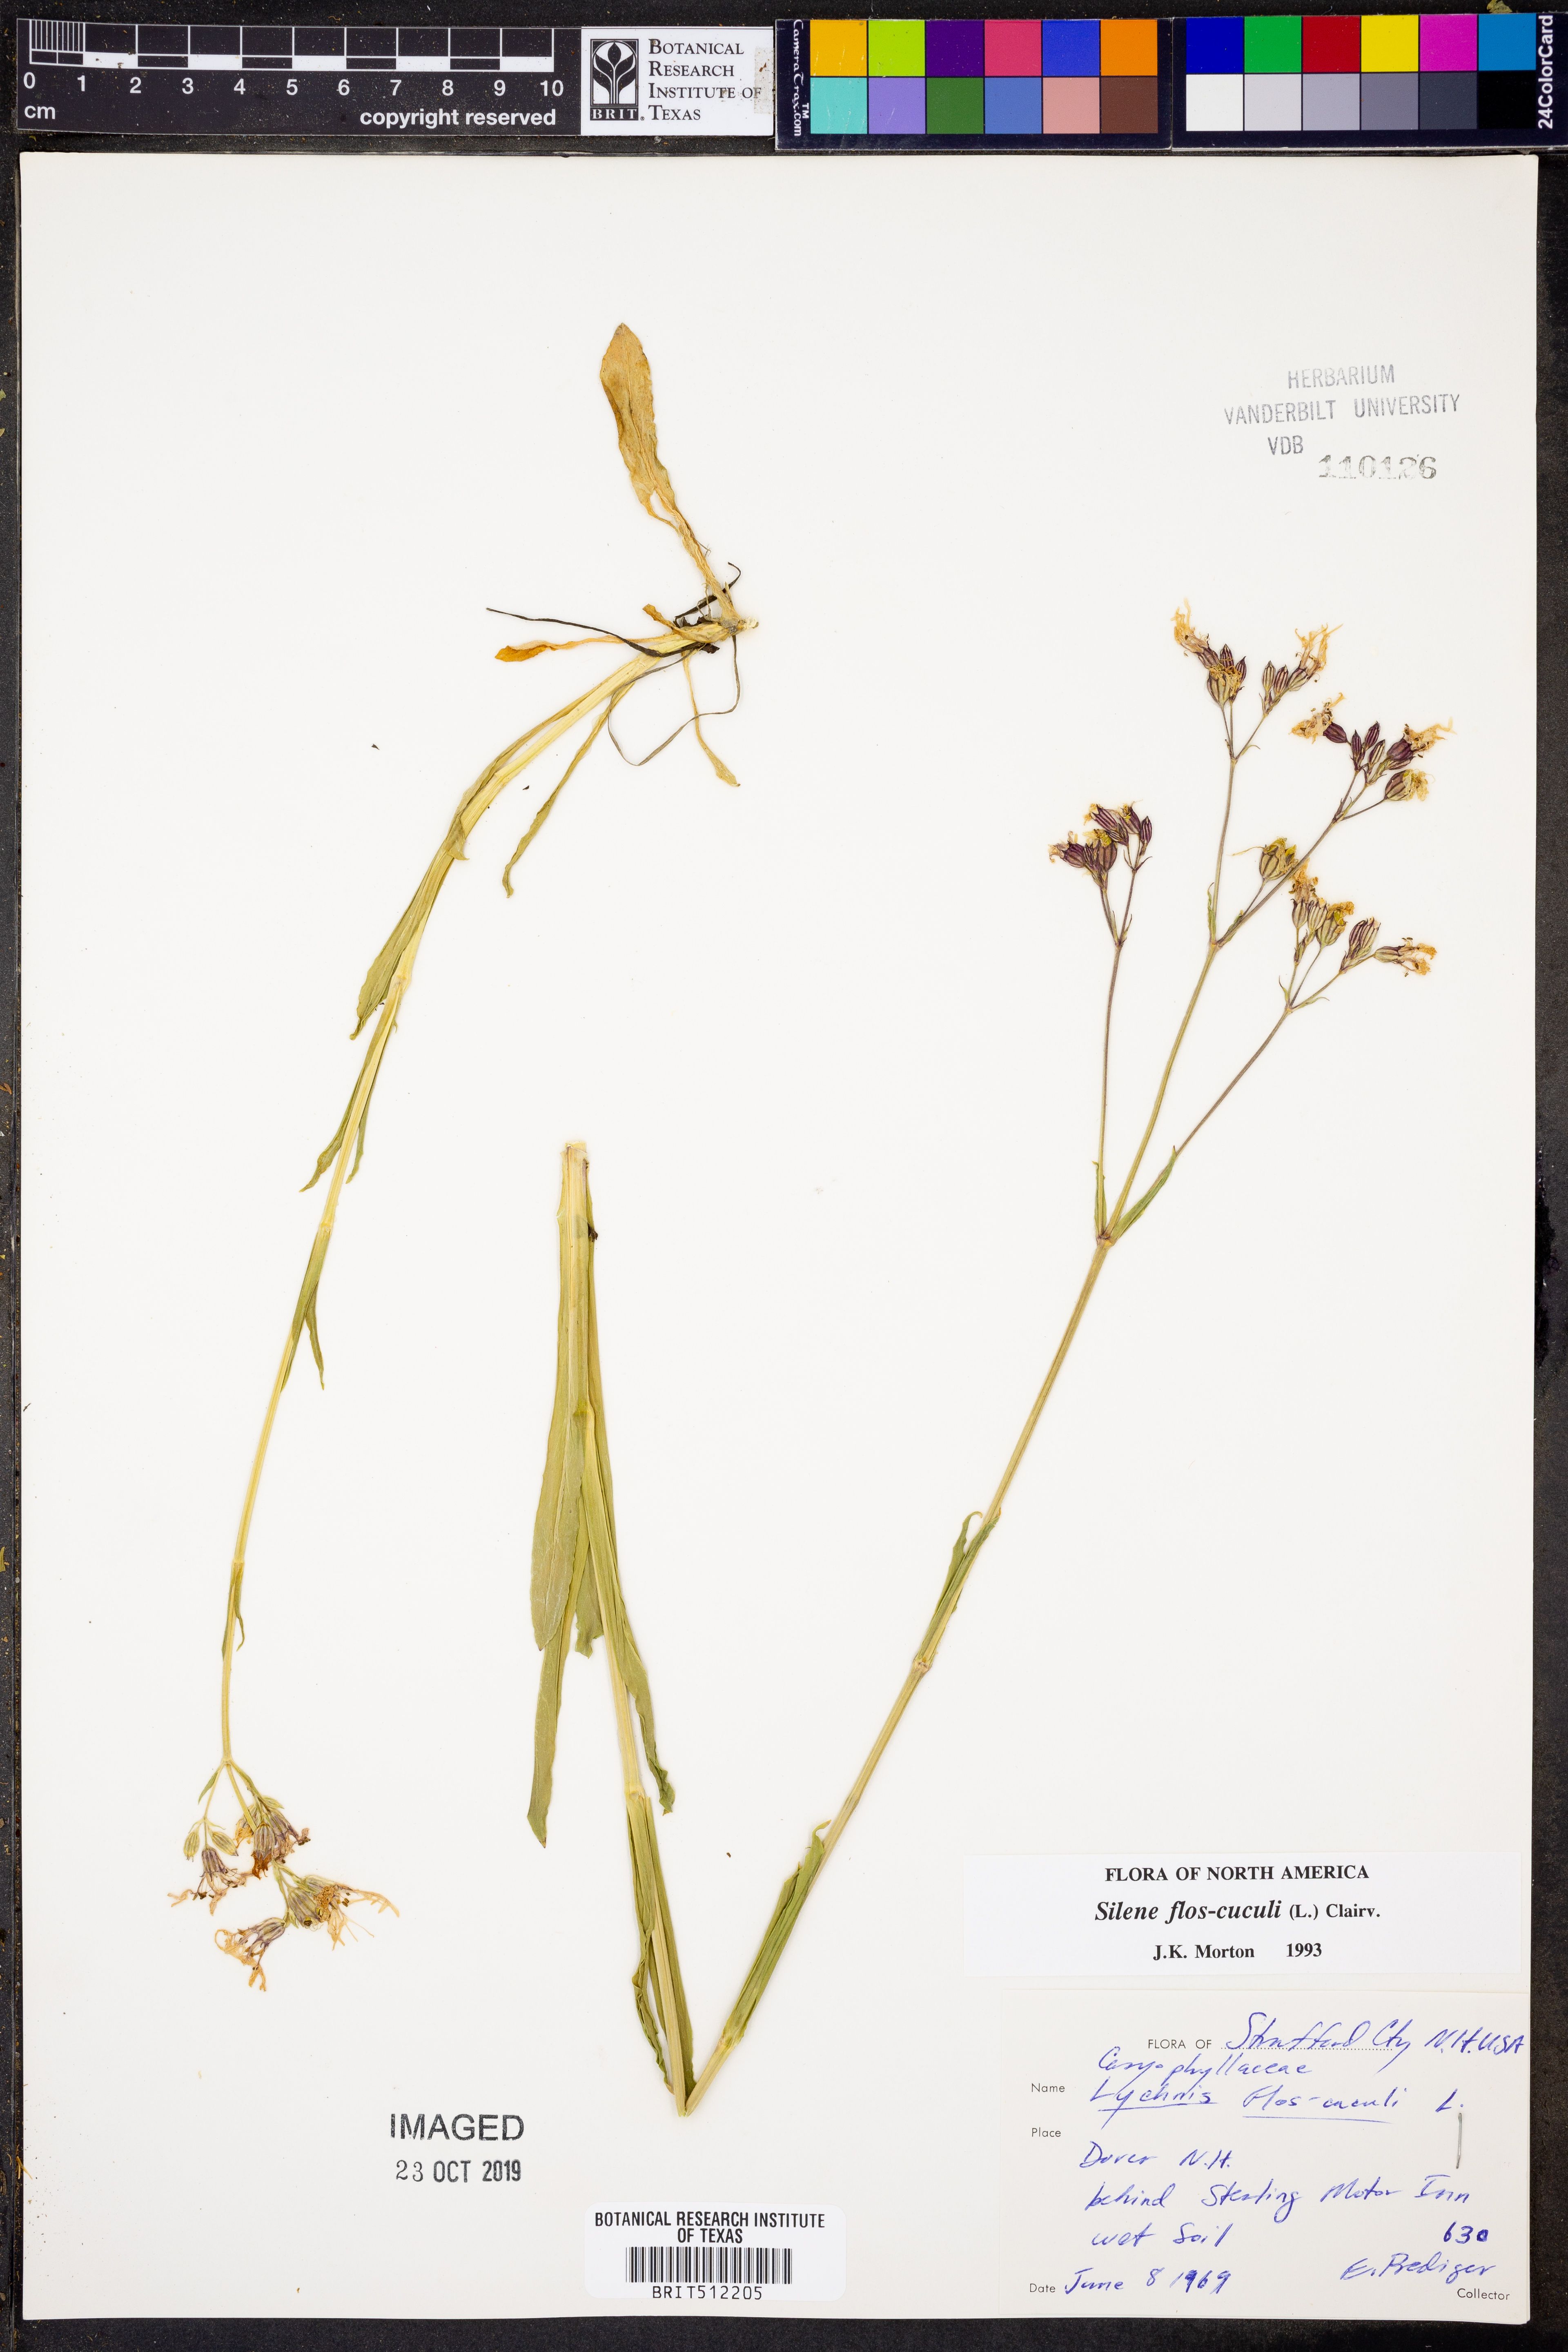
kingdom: Plantae
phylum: Tracheophyta
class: Magnoliopsida
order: Caryophyllales
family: Caryophyllaceae
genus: Silene
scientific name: Silene flos-cuculi
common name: Ragged-robin
